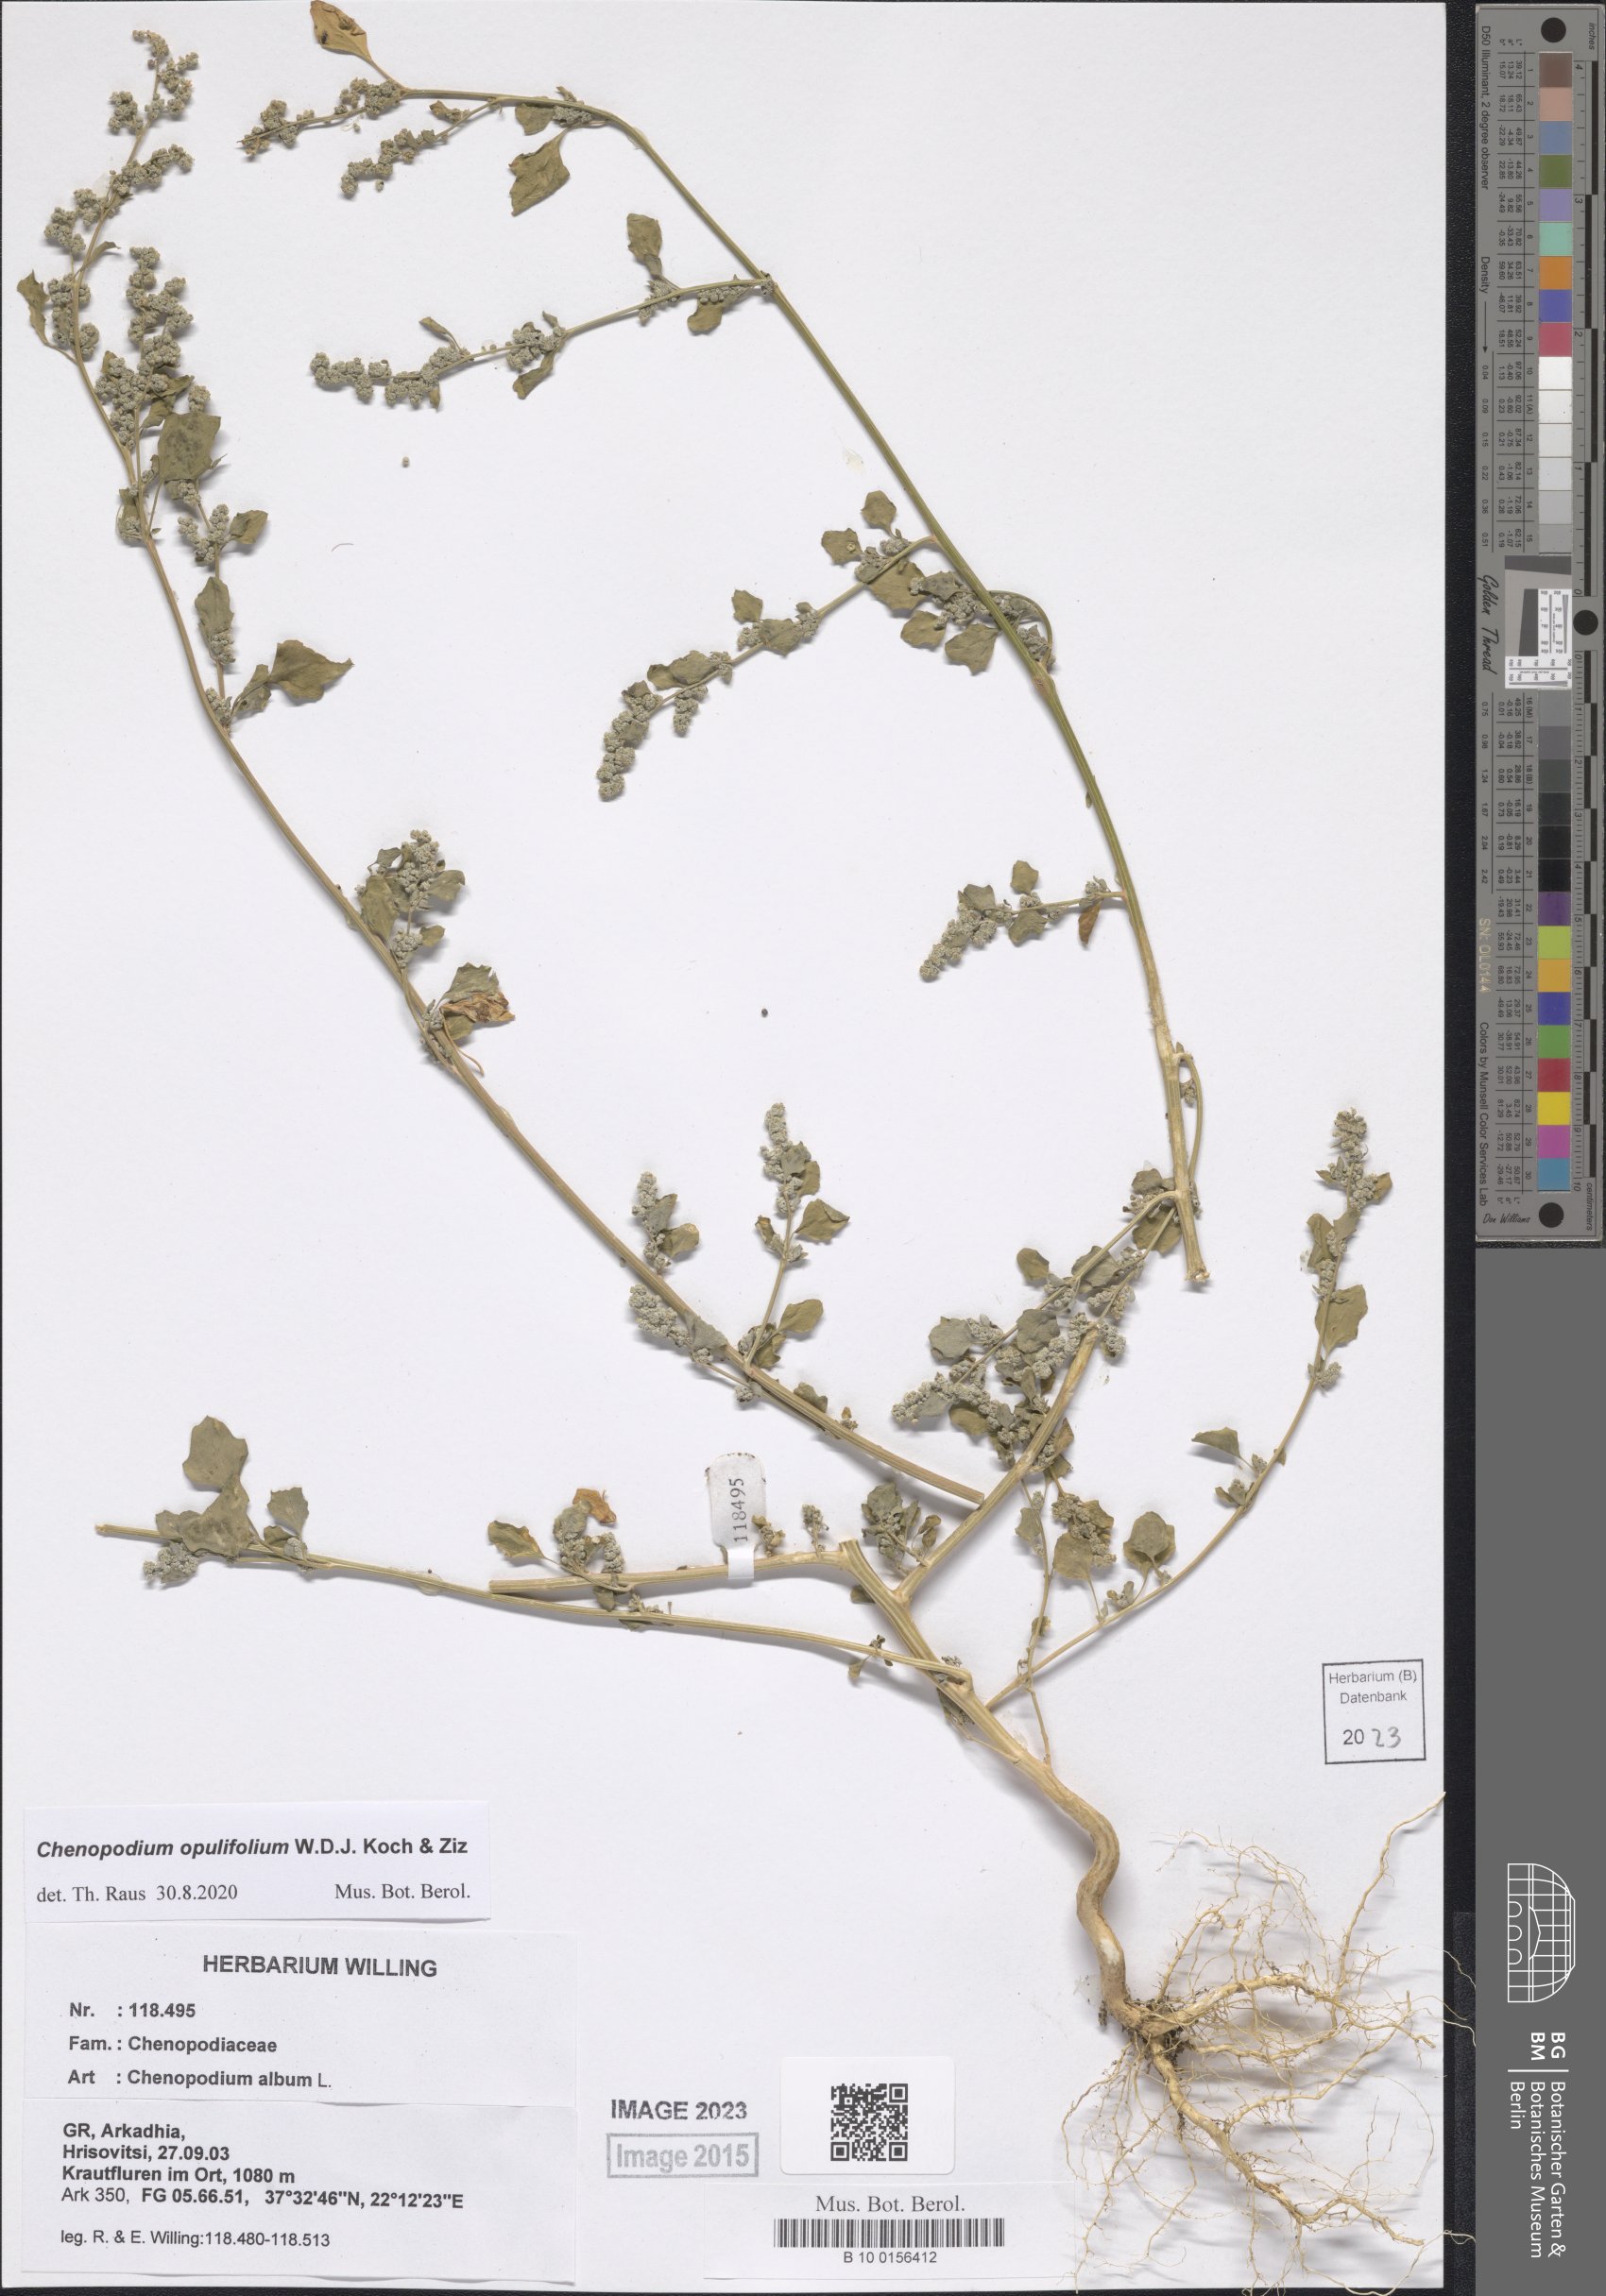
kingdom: Plantae
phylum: Tracheophyta
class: Magnoliopsida
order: Caryophyllales
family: Amaranthaceae
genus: Chenopodium
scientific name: Chenopodium opulifolium
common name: Grey goosefoot
